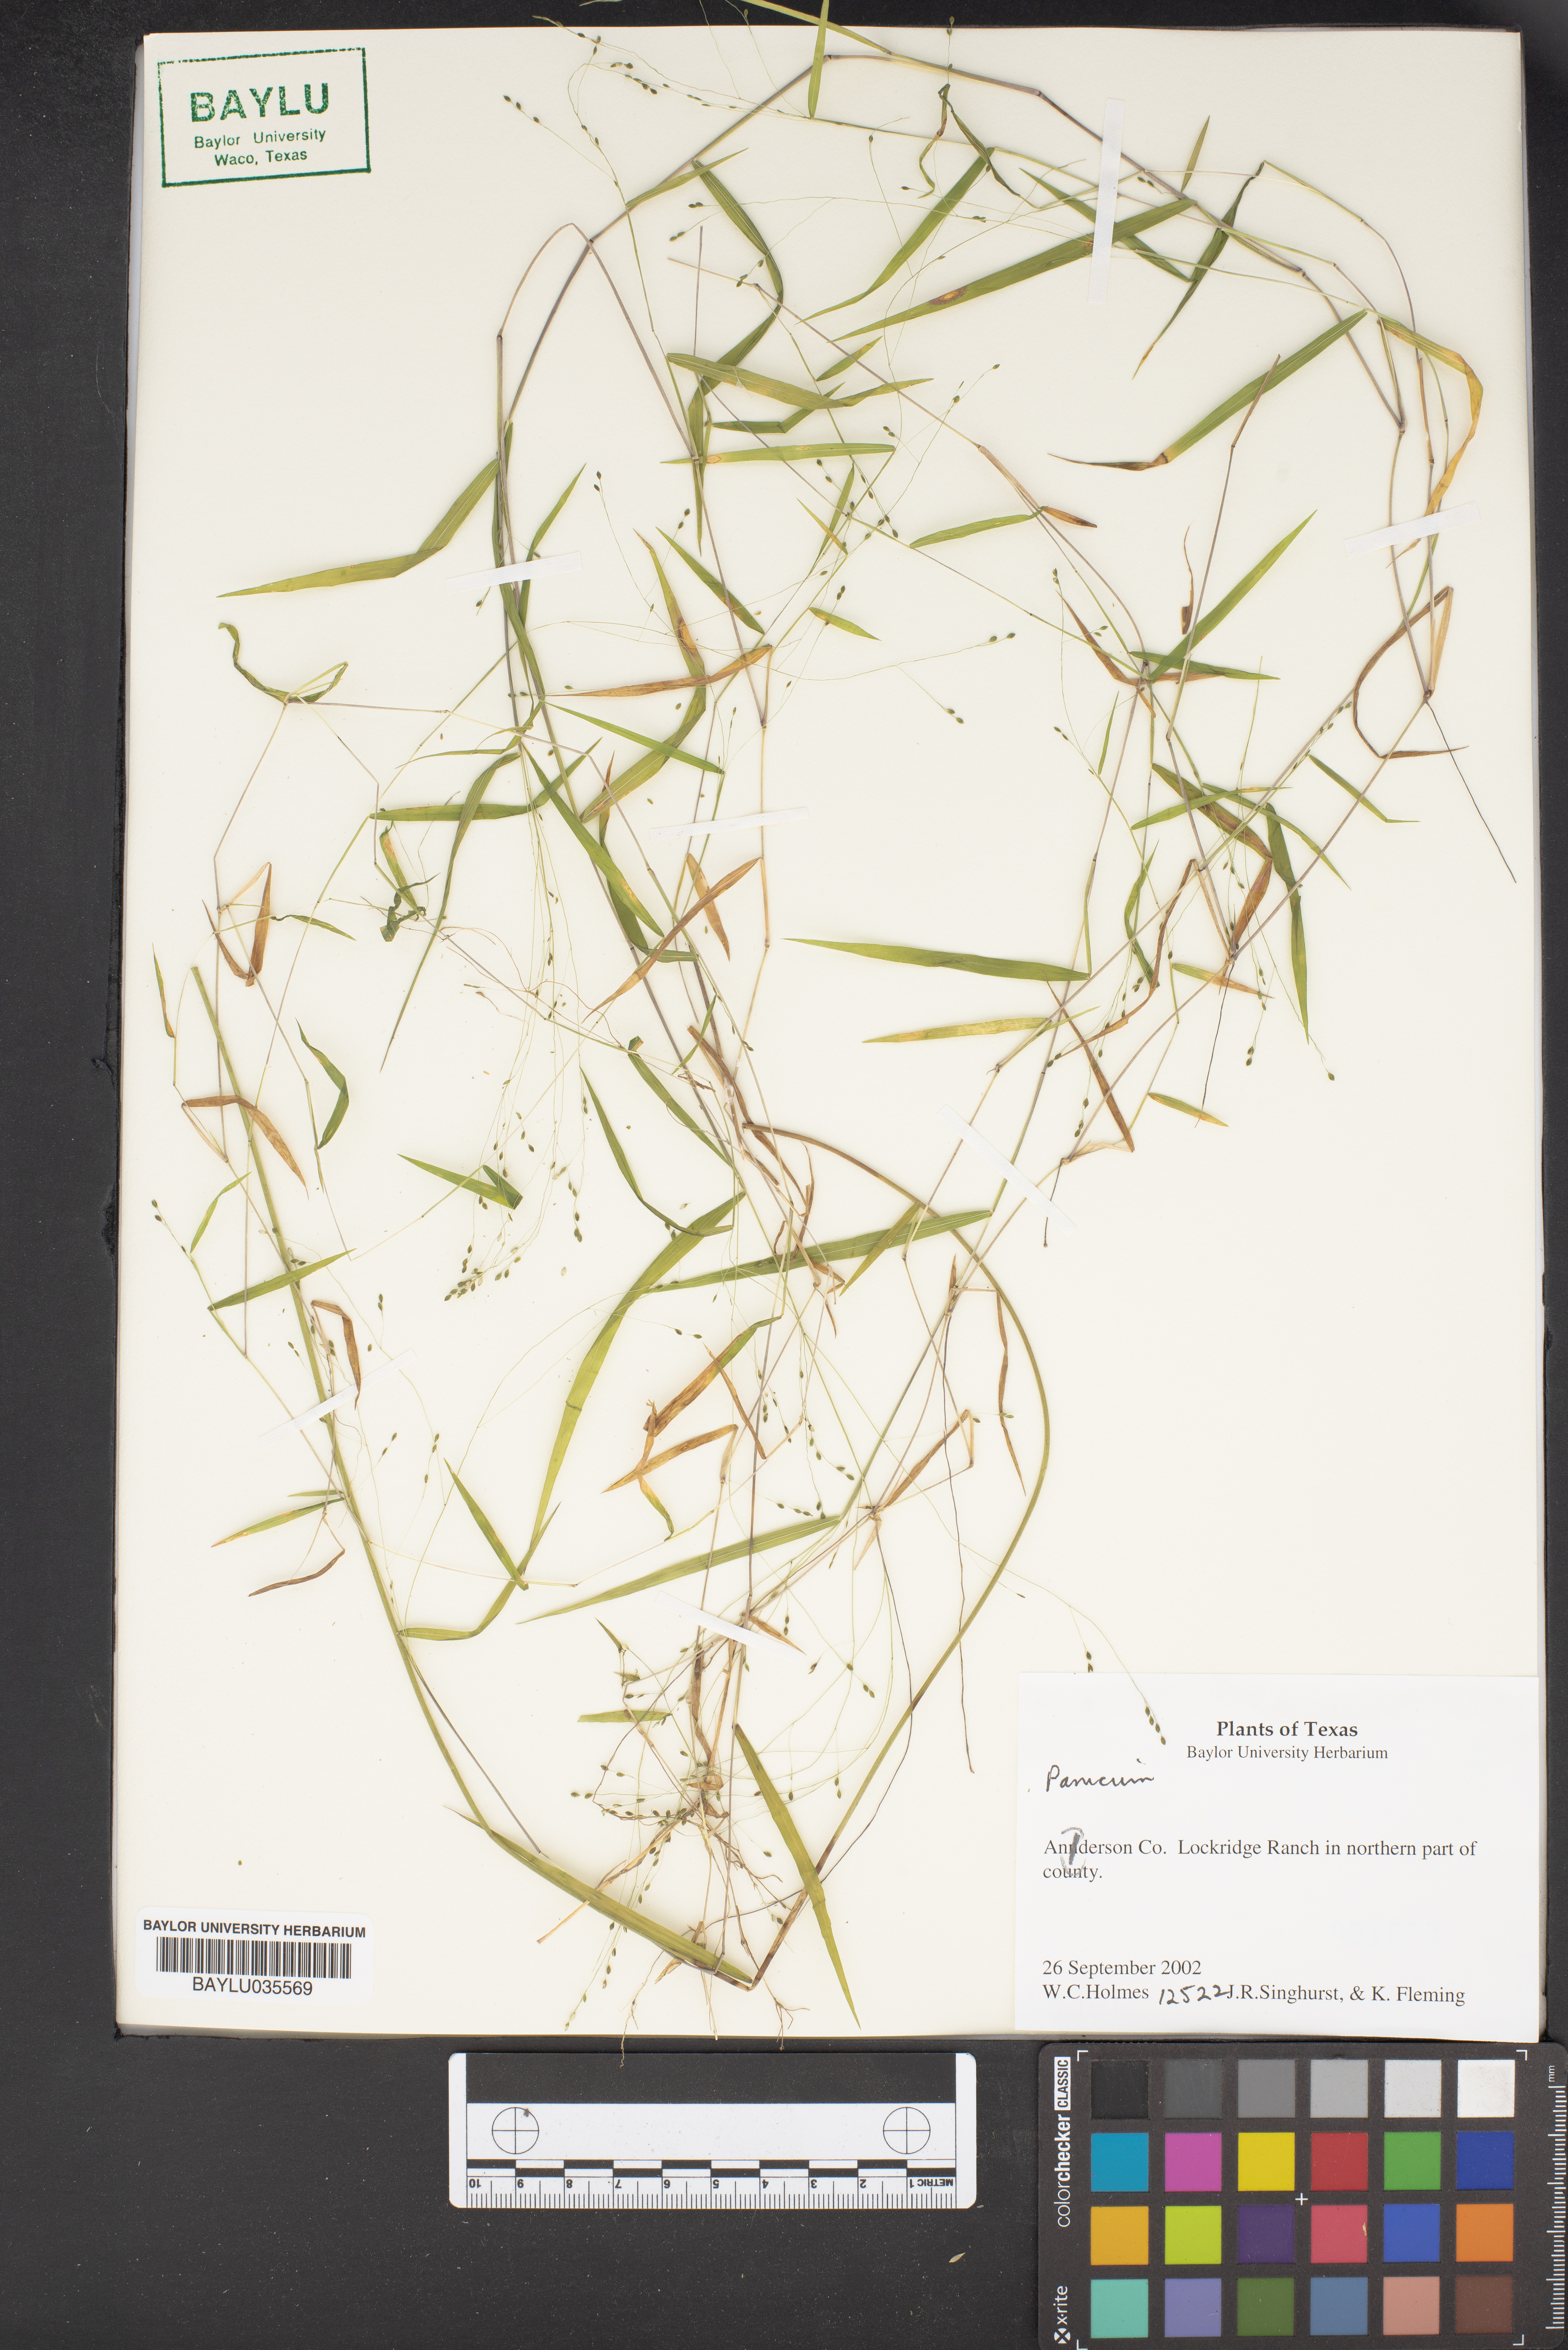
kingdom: Plantae
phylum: Tracheophyta
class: Liliopsida
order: Poales
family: Poaceae
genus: Panicum
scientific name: Panicum
